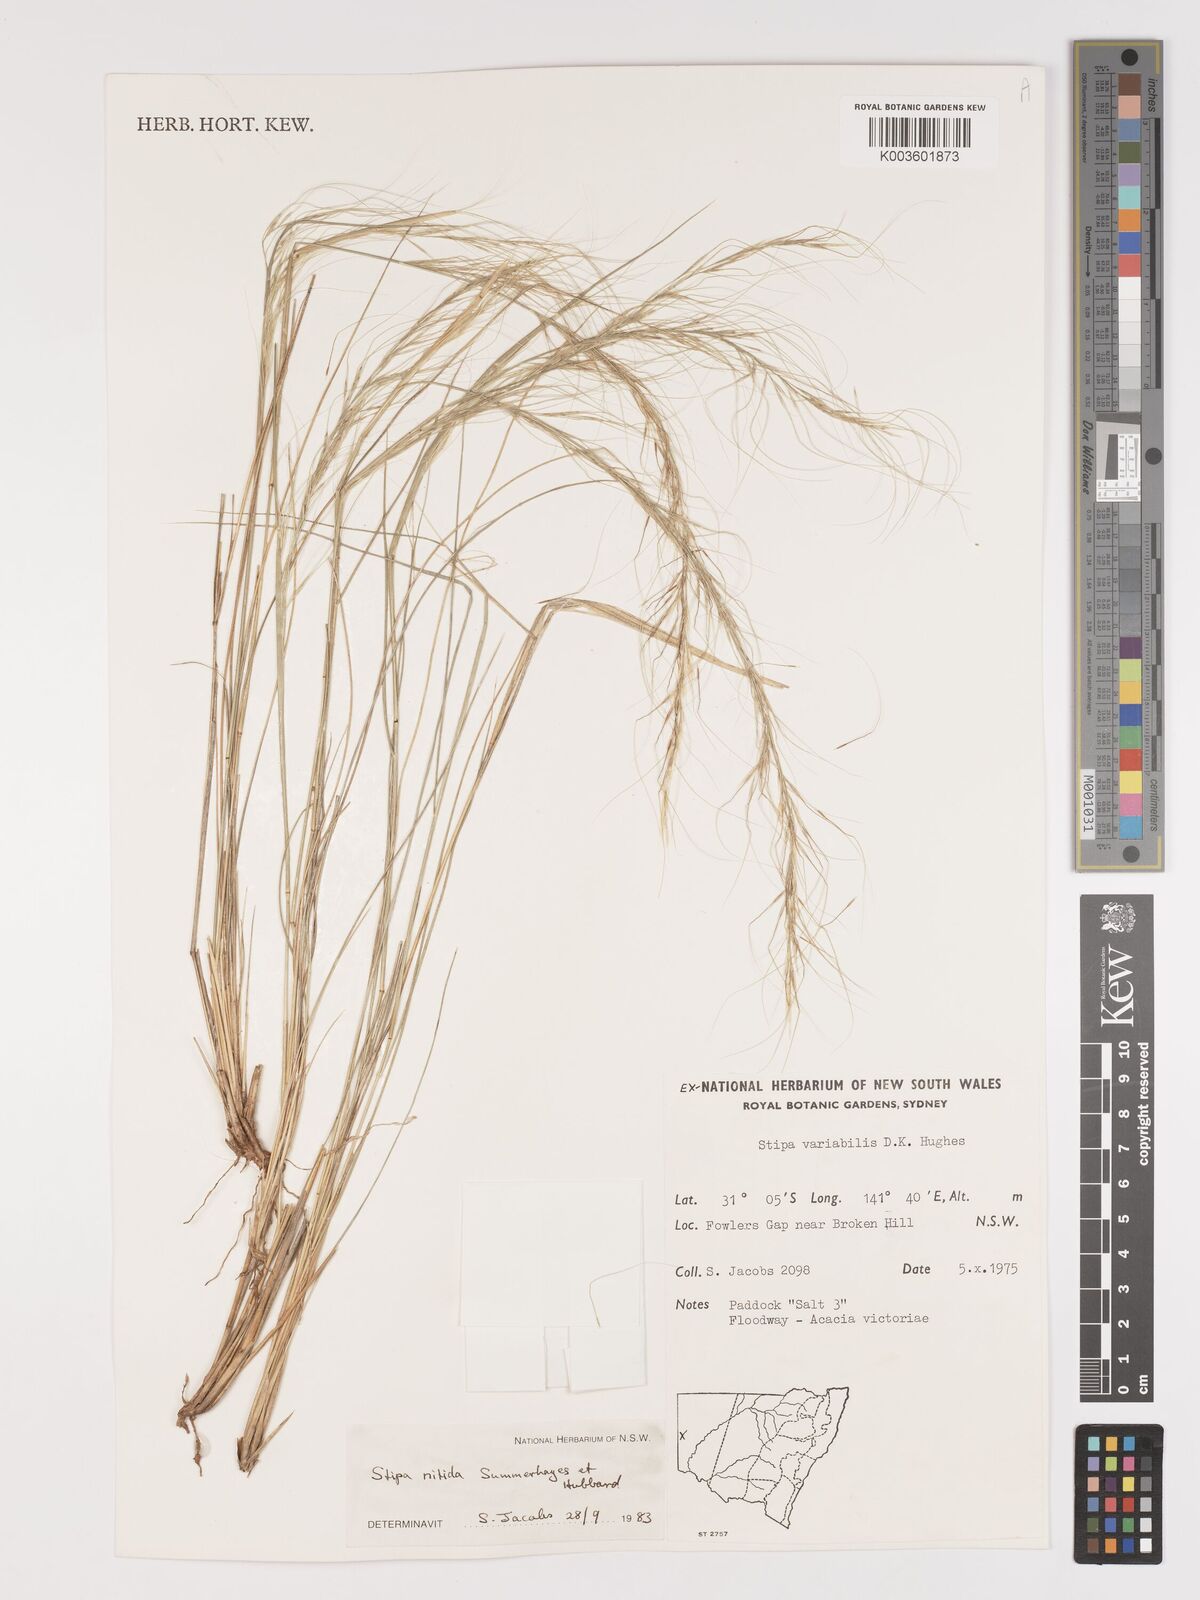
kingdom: Plantae
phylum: Tracheophyta
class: Liliopsida
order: Poales
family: Poaceae
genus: Austrostipa
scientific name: Austrostipa nitida
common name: Balcarra grass
